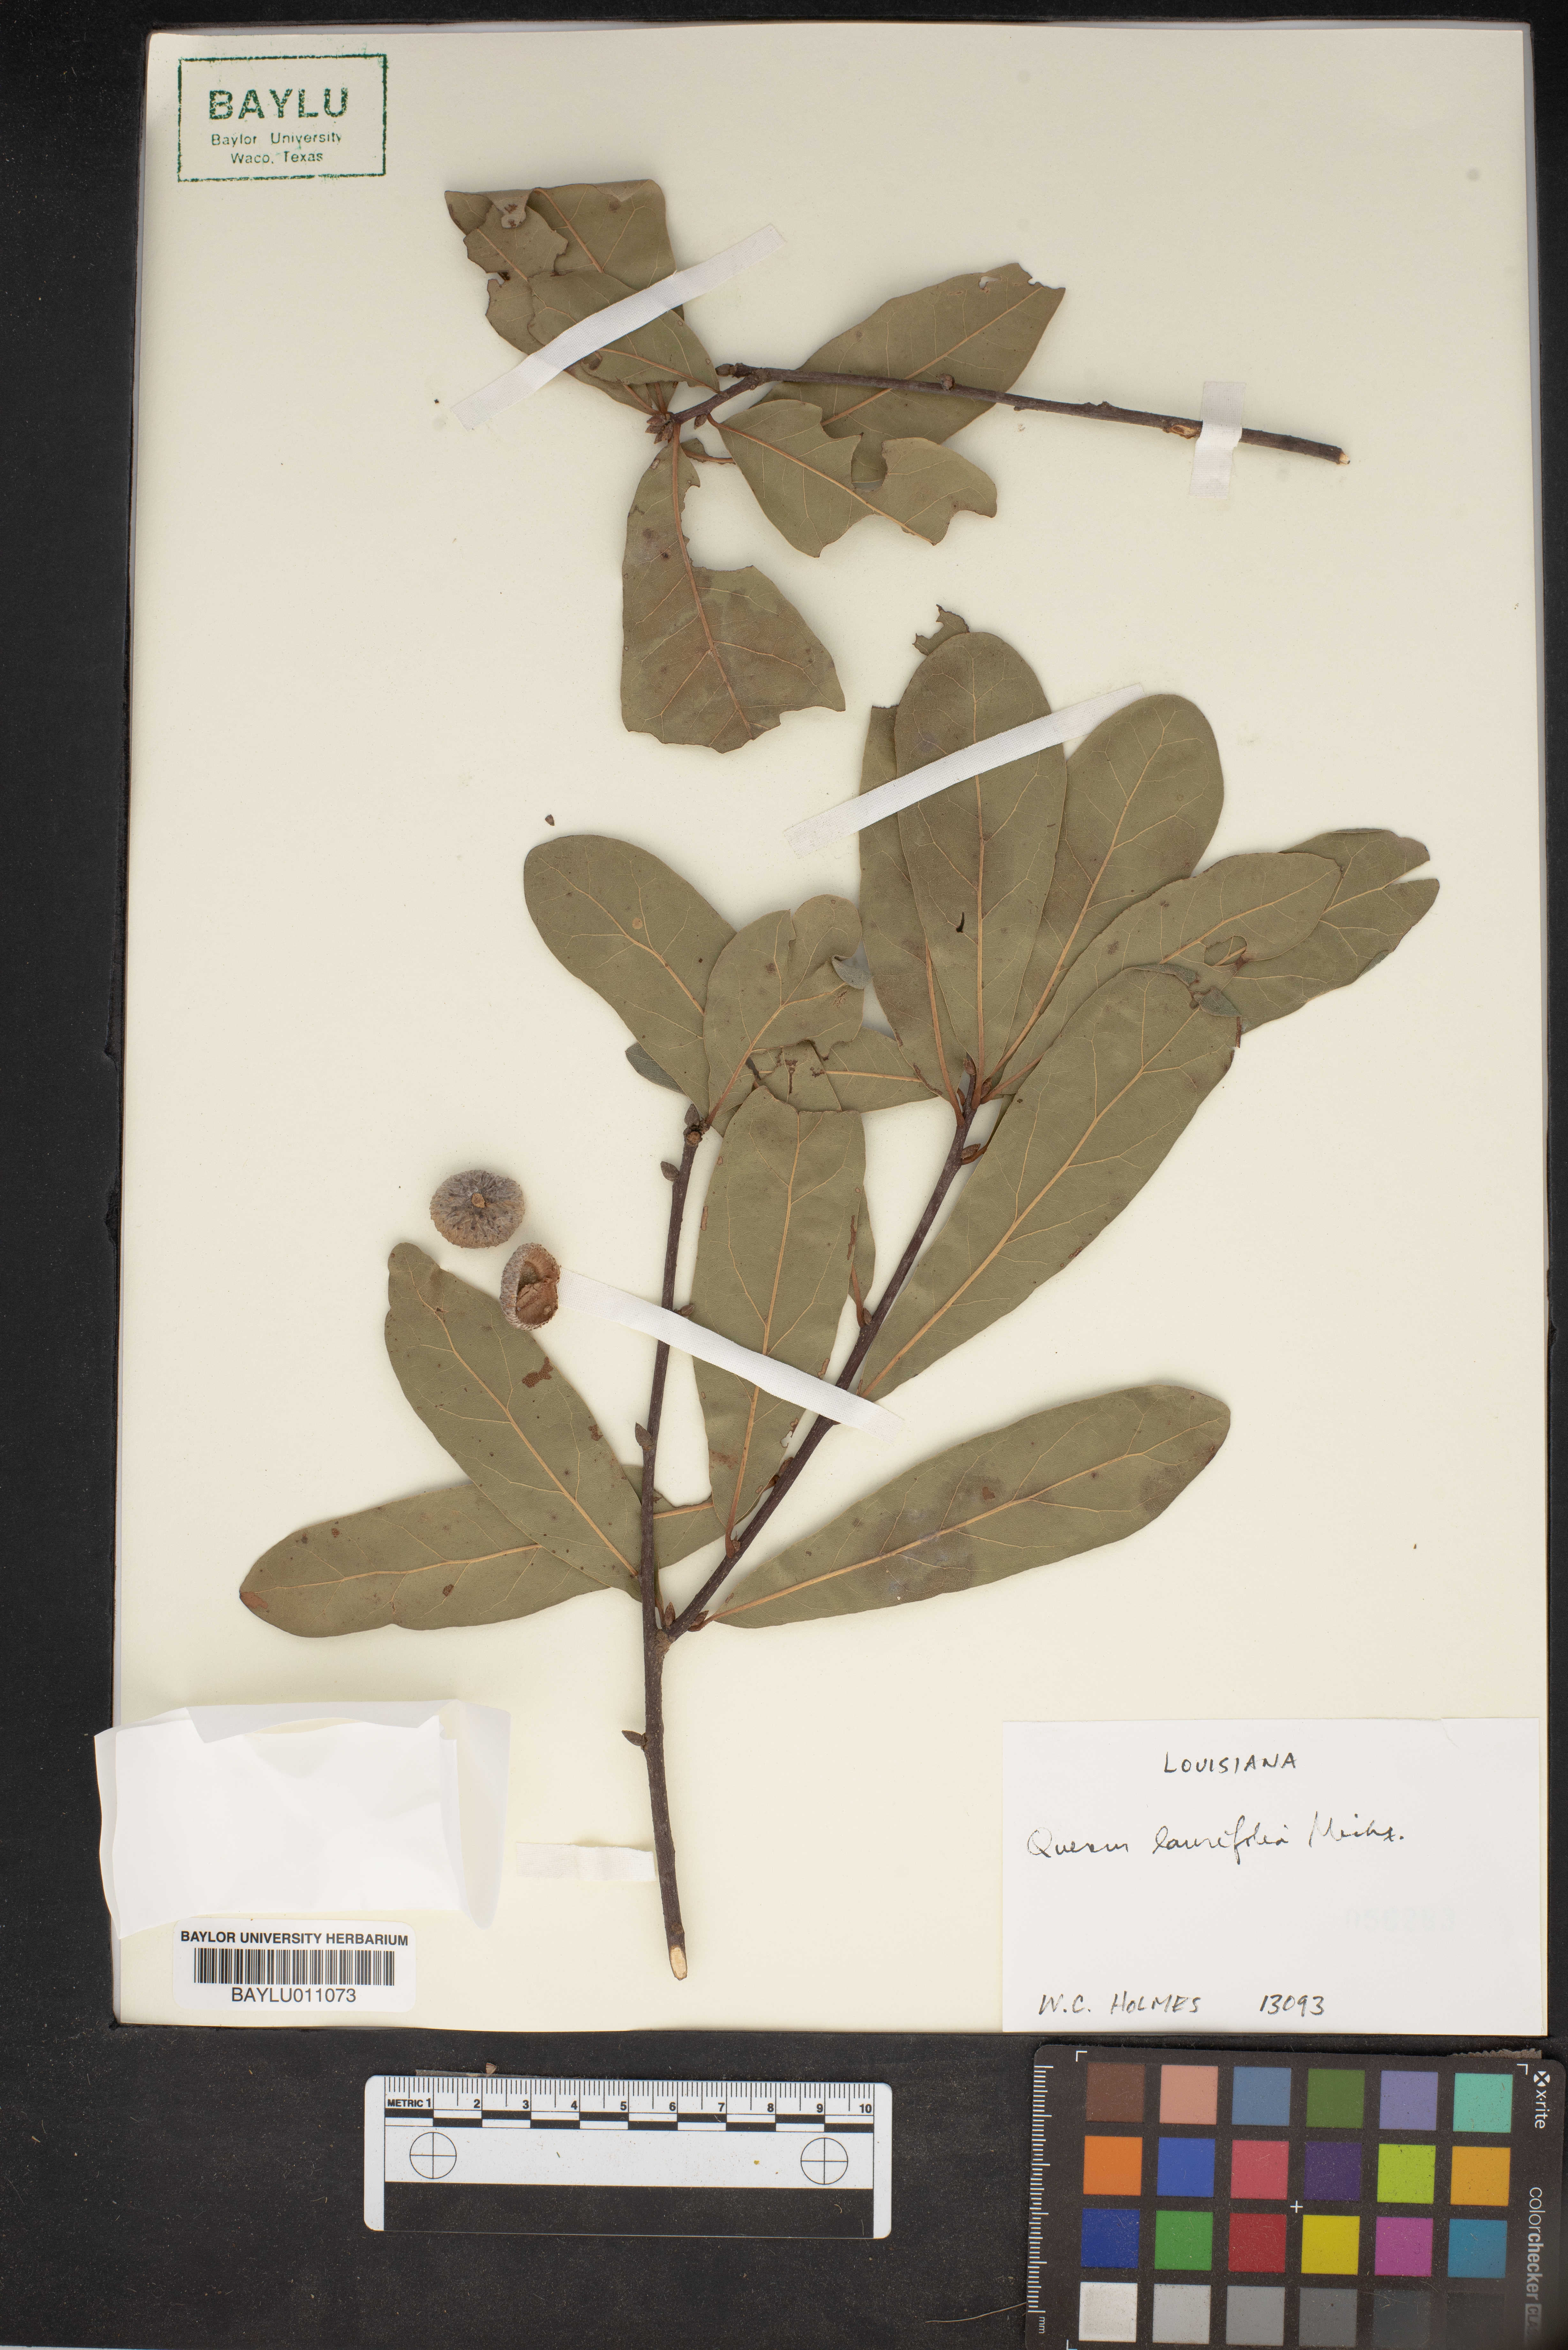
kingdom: Plantae
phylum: Tracheophyta
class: Magnoliopsida
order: Fagales
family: Fagaceae
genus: Quercus
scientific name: Quercus laurifolia
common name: Swamp laurel oak
